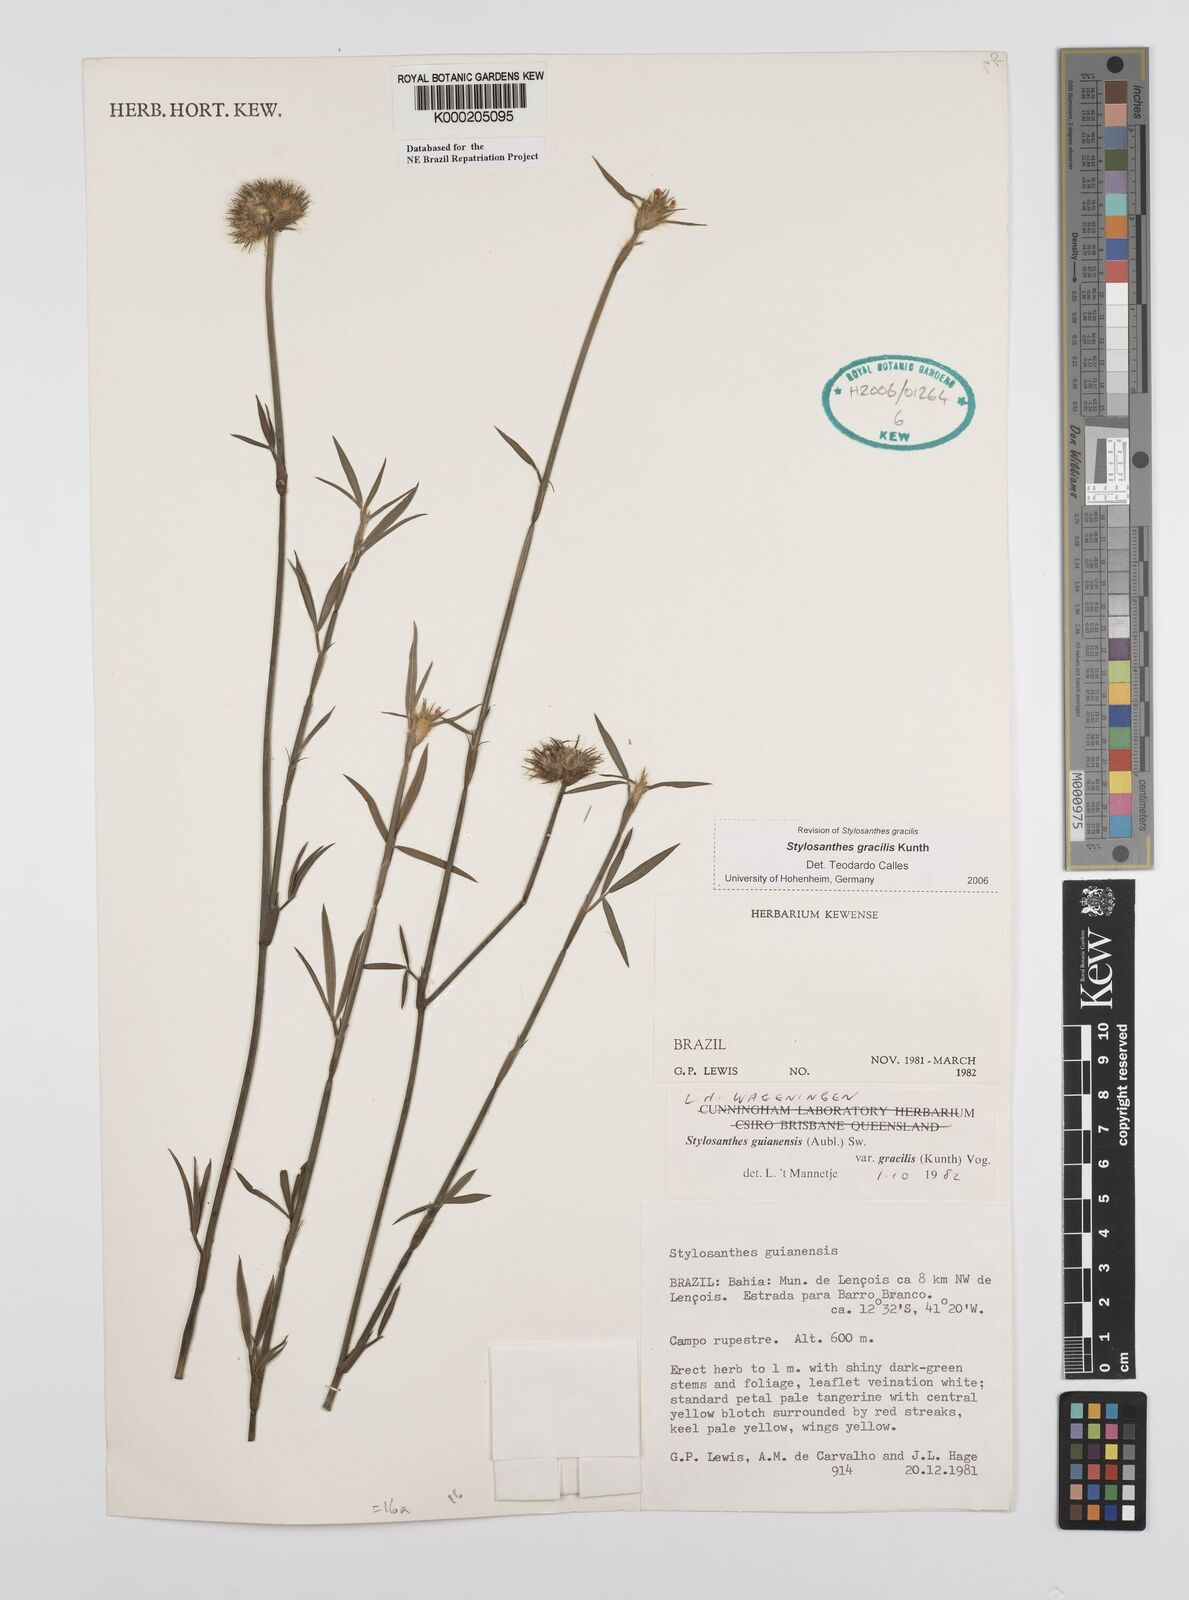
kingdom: Plantae
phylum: Tracheophyta
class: Magnoliopsida
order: Fabales
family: Fabaceae
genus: Stylosanthes
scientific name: Stylosanthes guianensis
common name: Pencil flower
